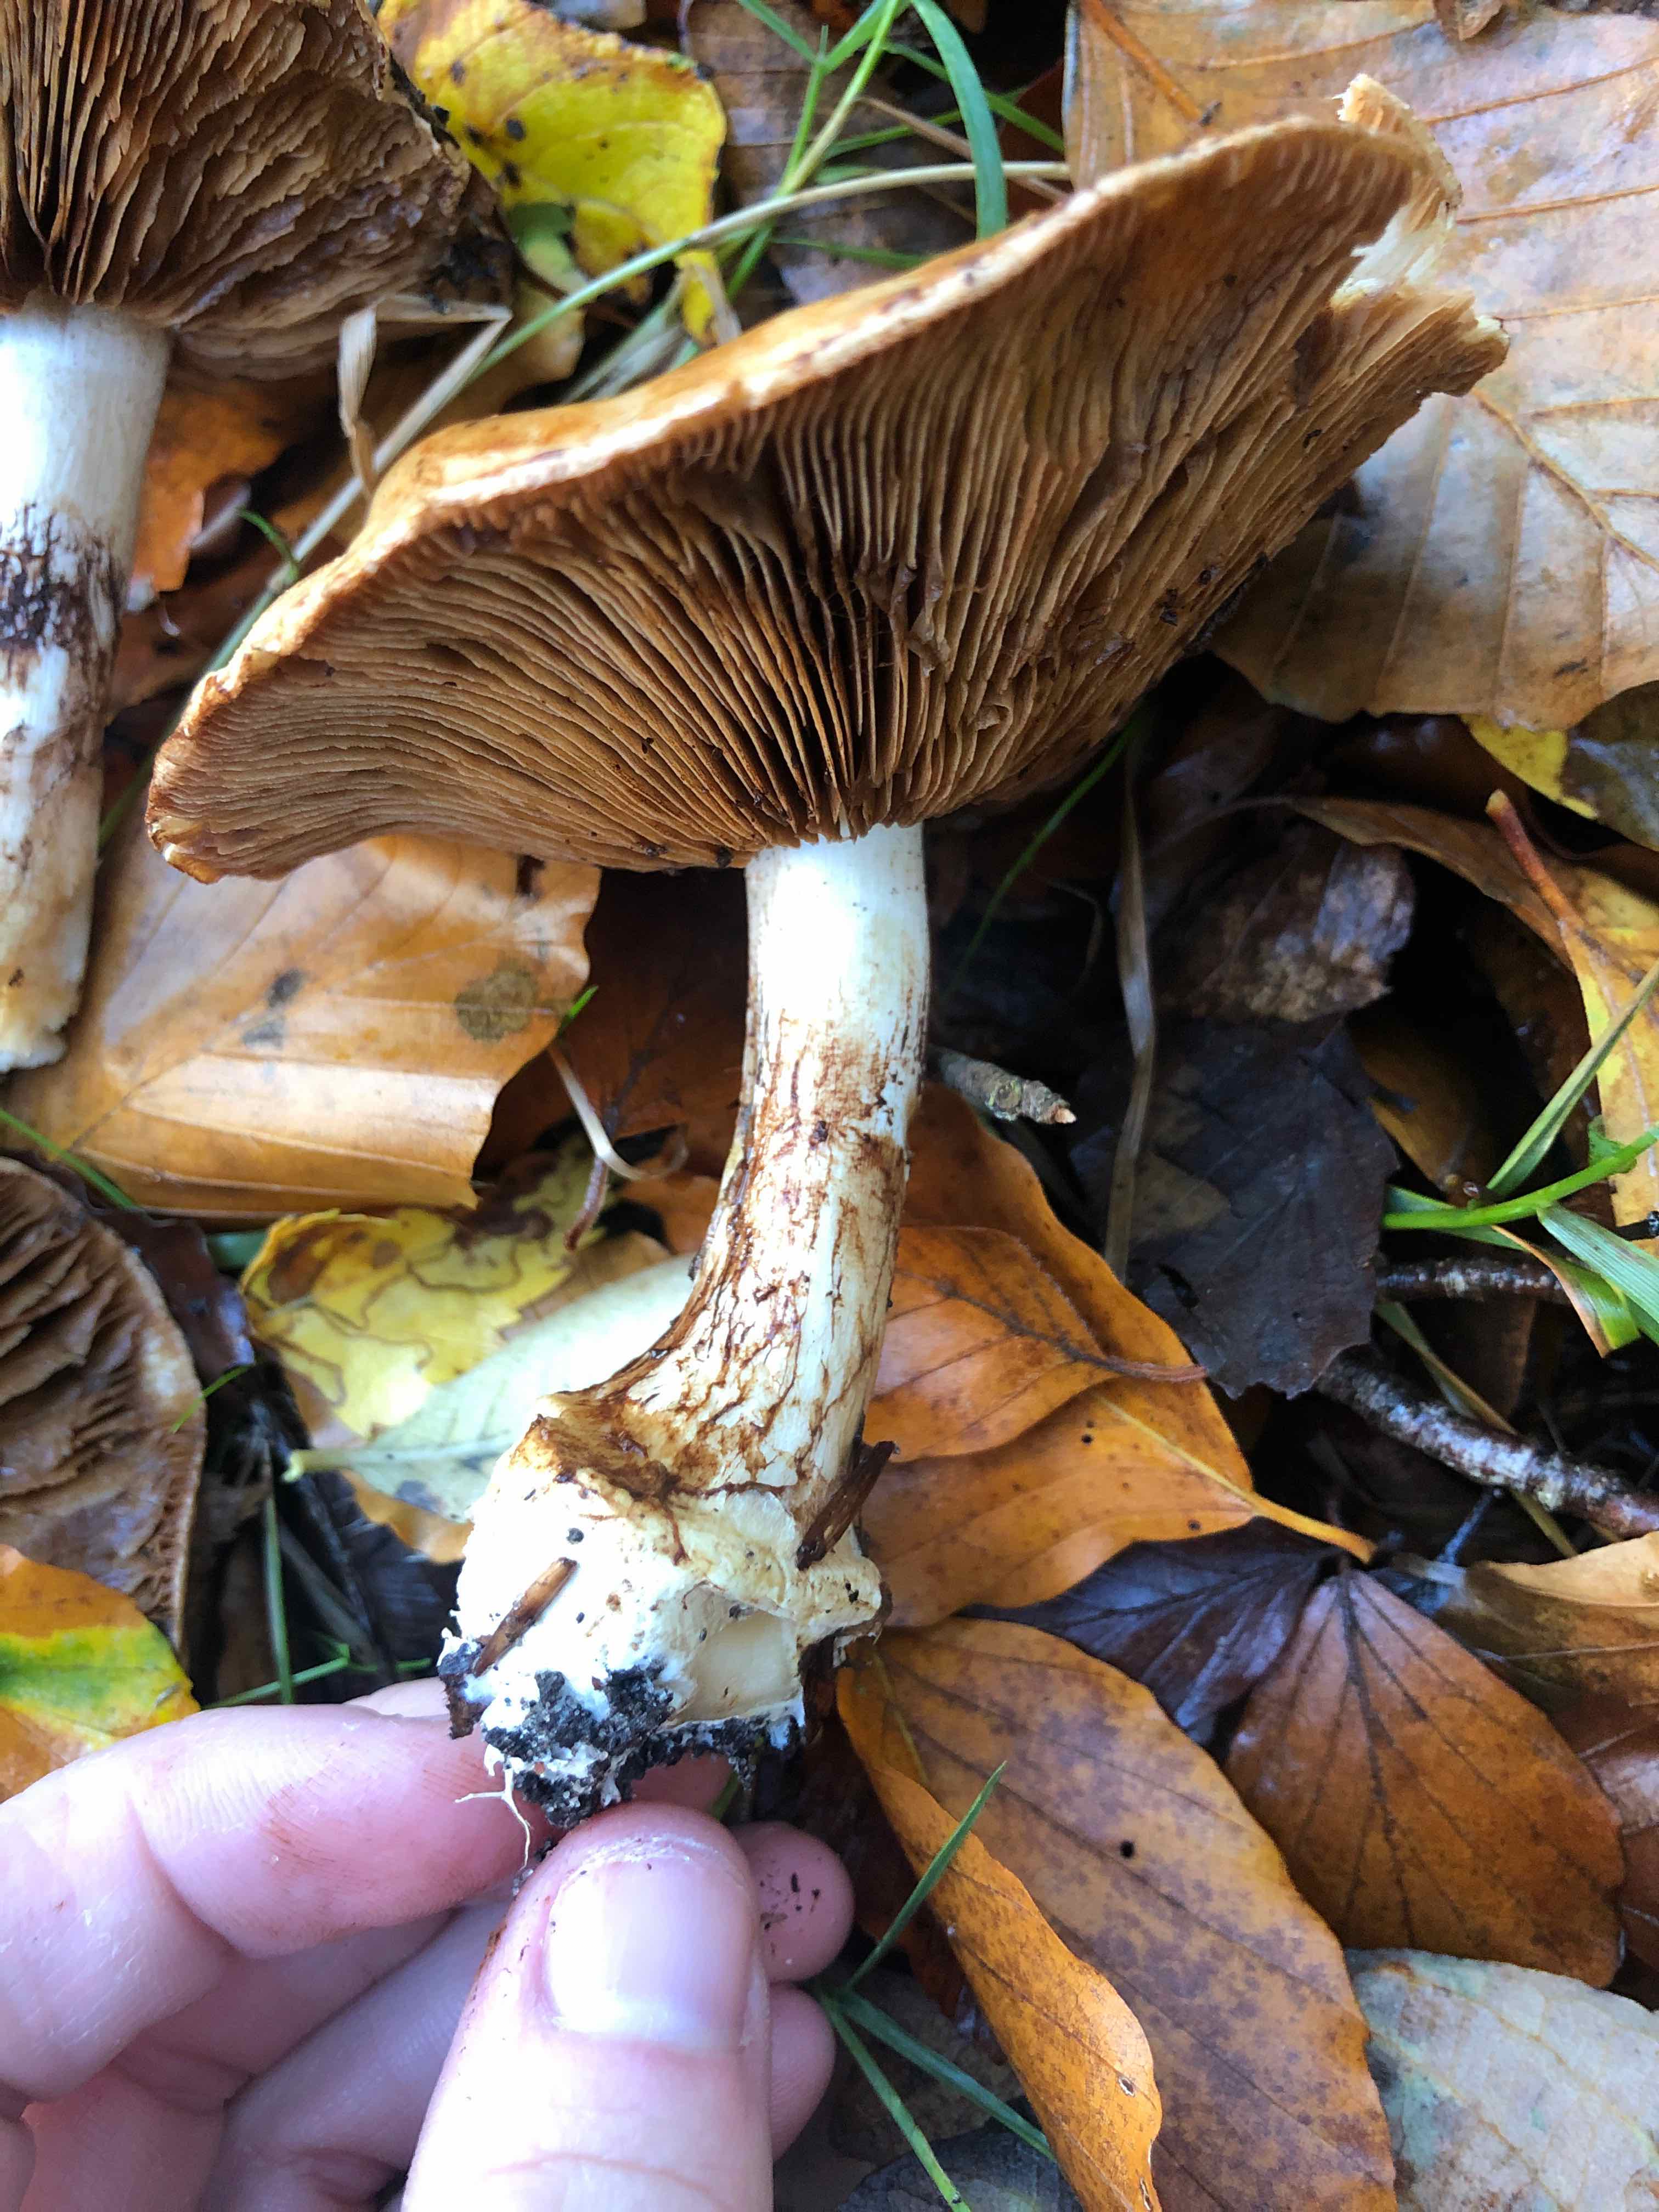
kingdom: Fungi
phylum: Basidiomycota
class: Agaricomycetes
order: Agaricales
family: Cortinariaceae
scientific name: Cortinariaceae
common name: slørhatfamilien
